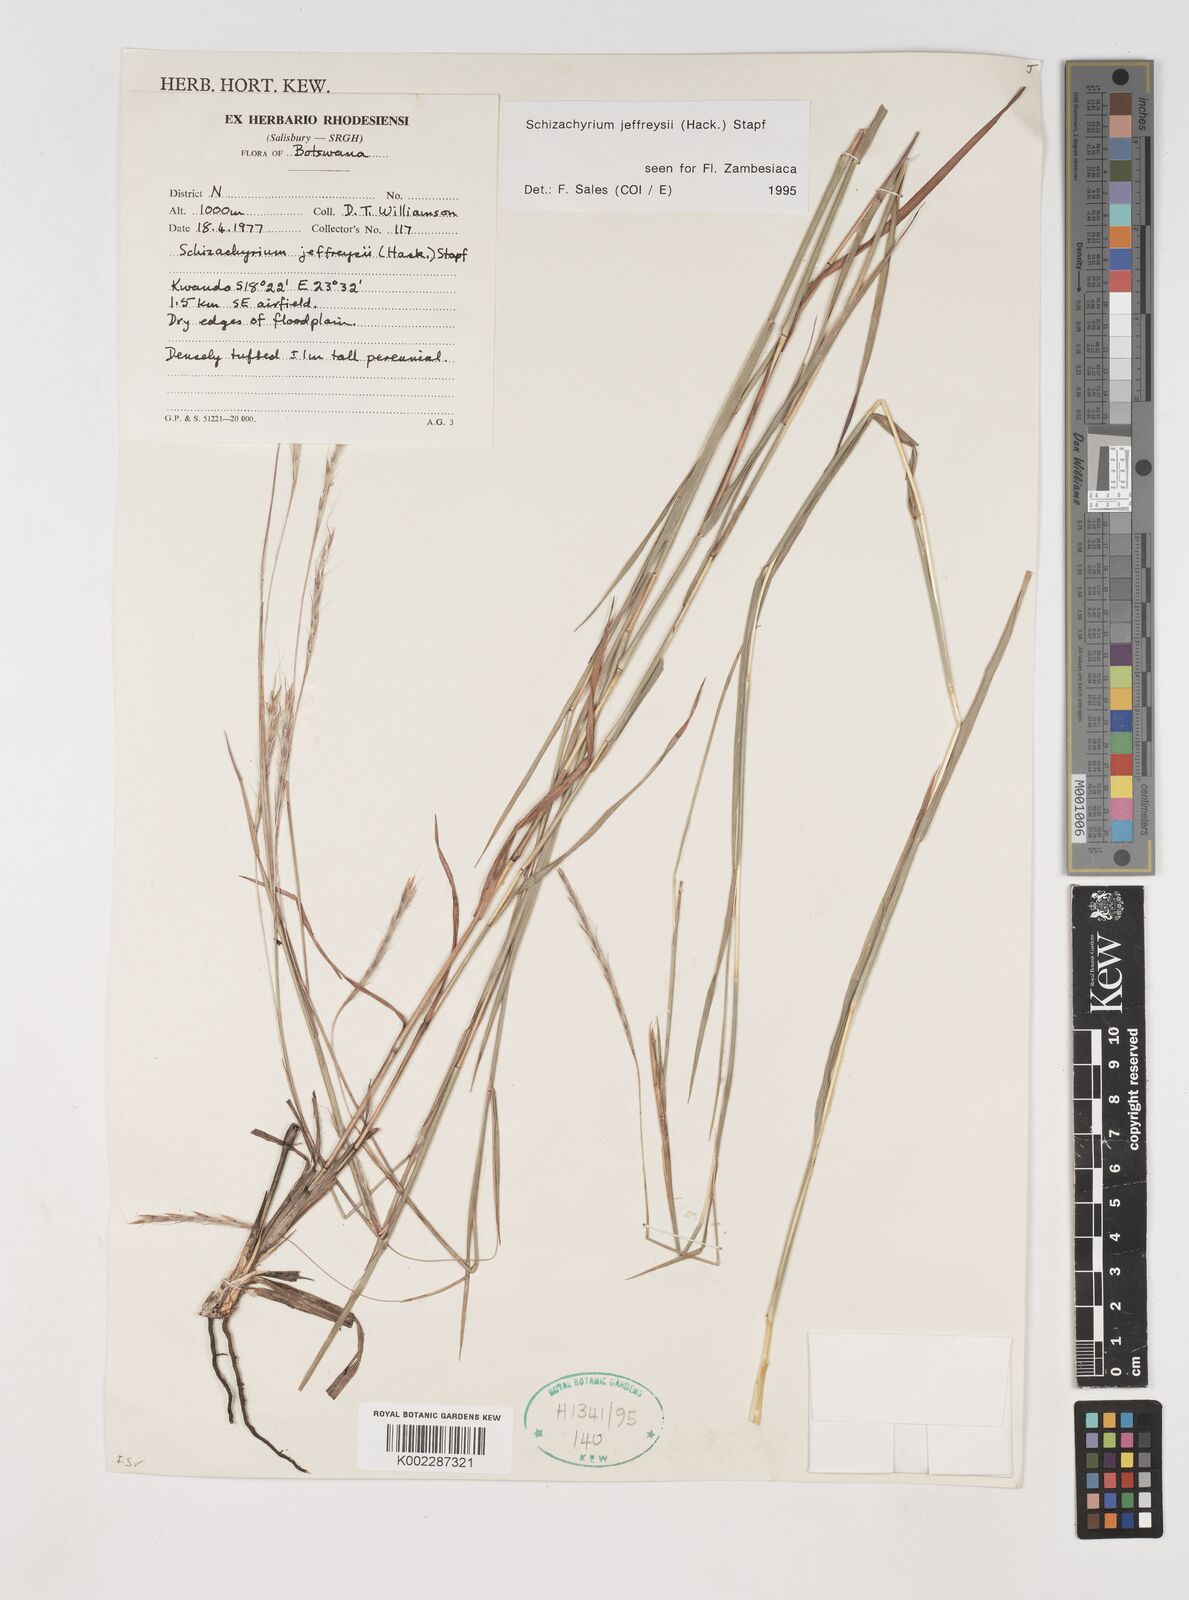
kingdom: Plantae
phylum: Tracheophyta
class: Liliopsida
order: Poales
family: Poaceae
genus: Schizachyrium
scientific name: Schizachyrium jeffreysii
